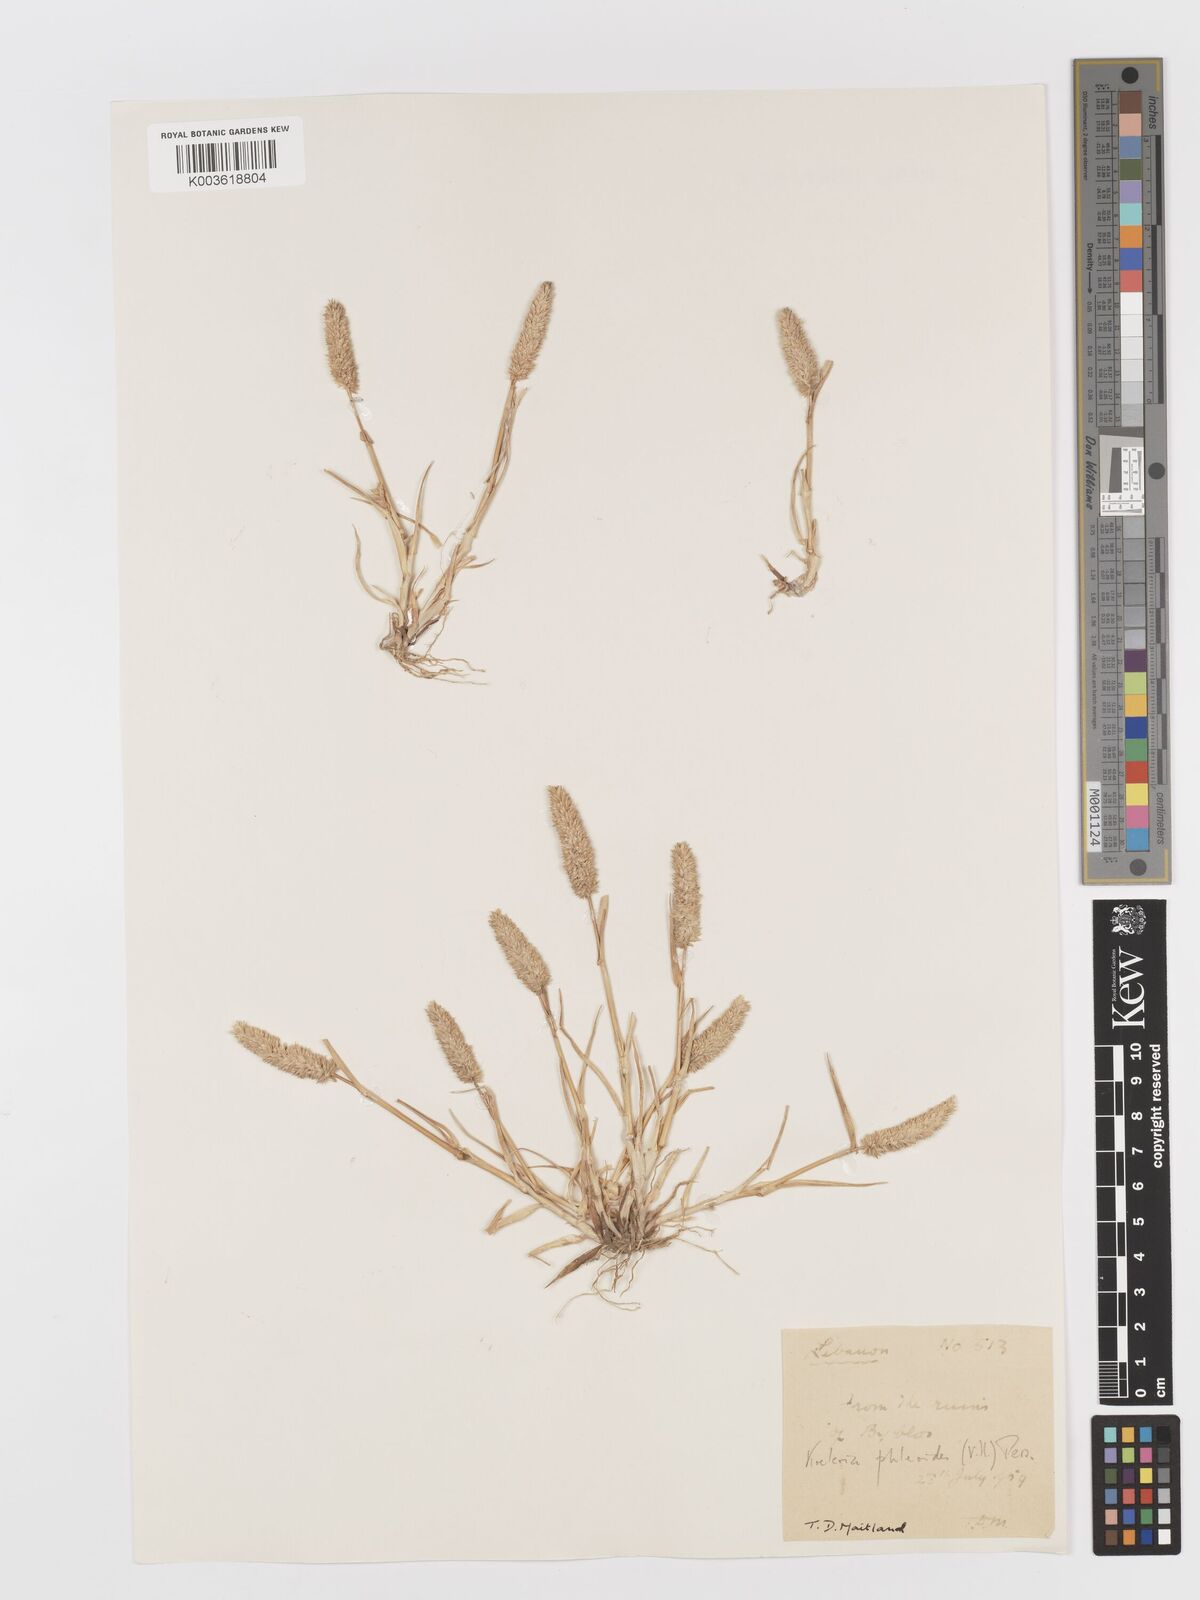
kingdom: Plantae
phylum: Tracheophyta
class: Liliopsida
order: Poales
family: Poaceae
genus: Rostraria
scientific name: Rostraria cristata
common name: Mediterranean hair-grass
